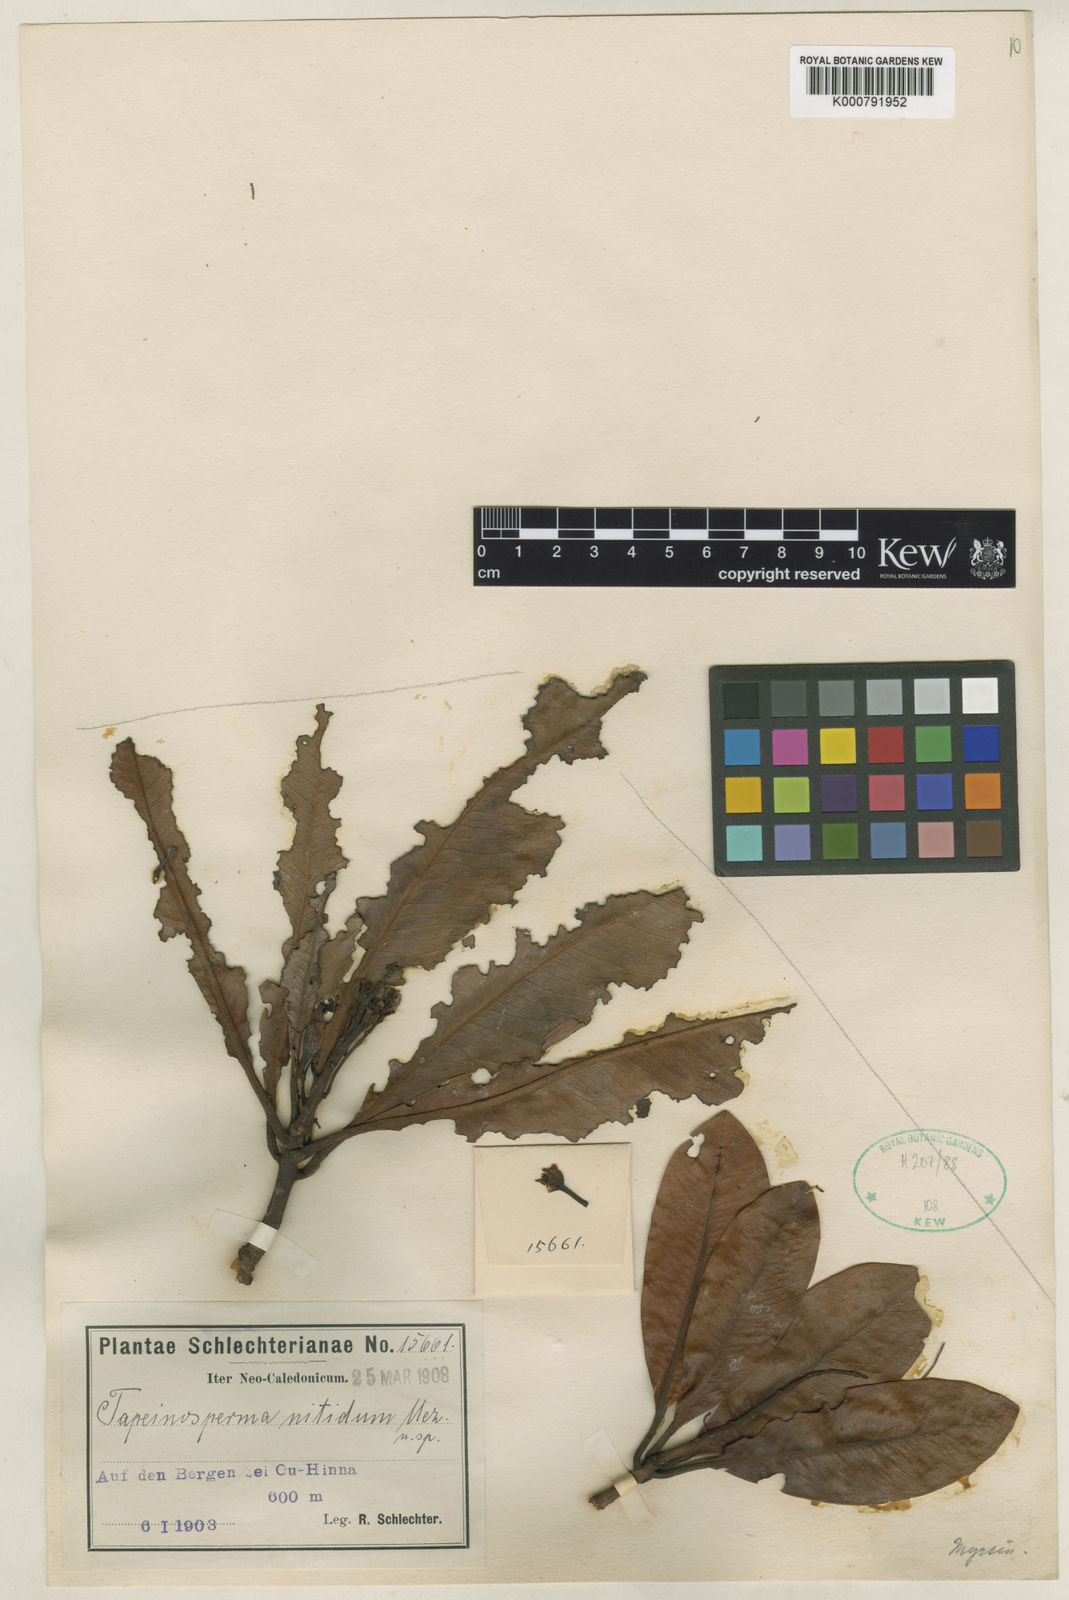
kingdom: Plantae
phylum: Tracheophyta
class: Magnoliopsida
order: Ericales
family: Primulaceae
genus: Tapeinosperma
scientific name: Tapeinosperma nitidum
